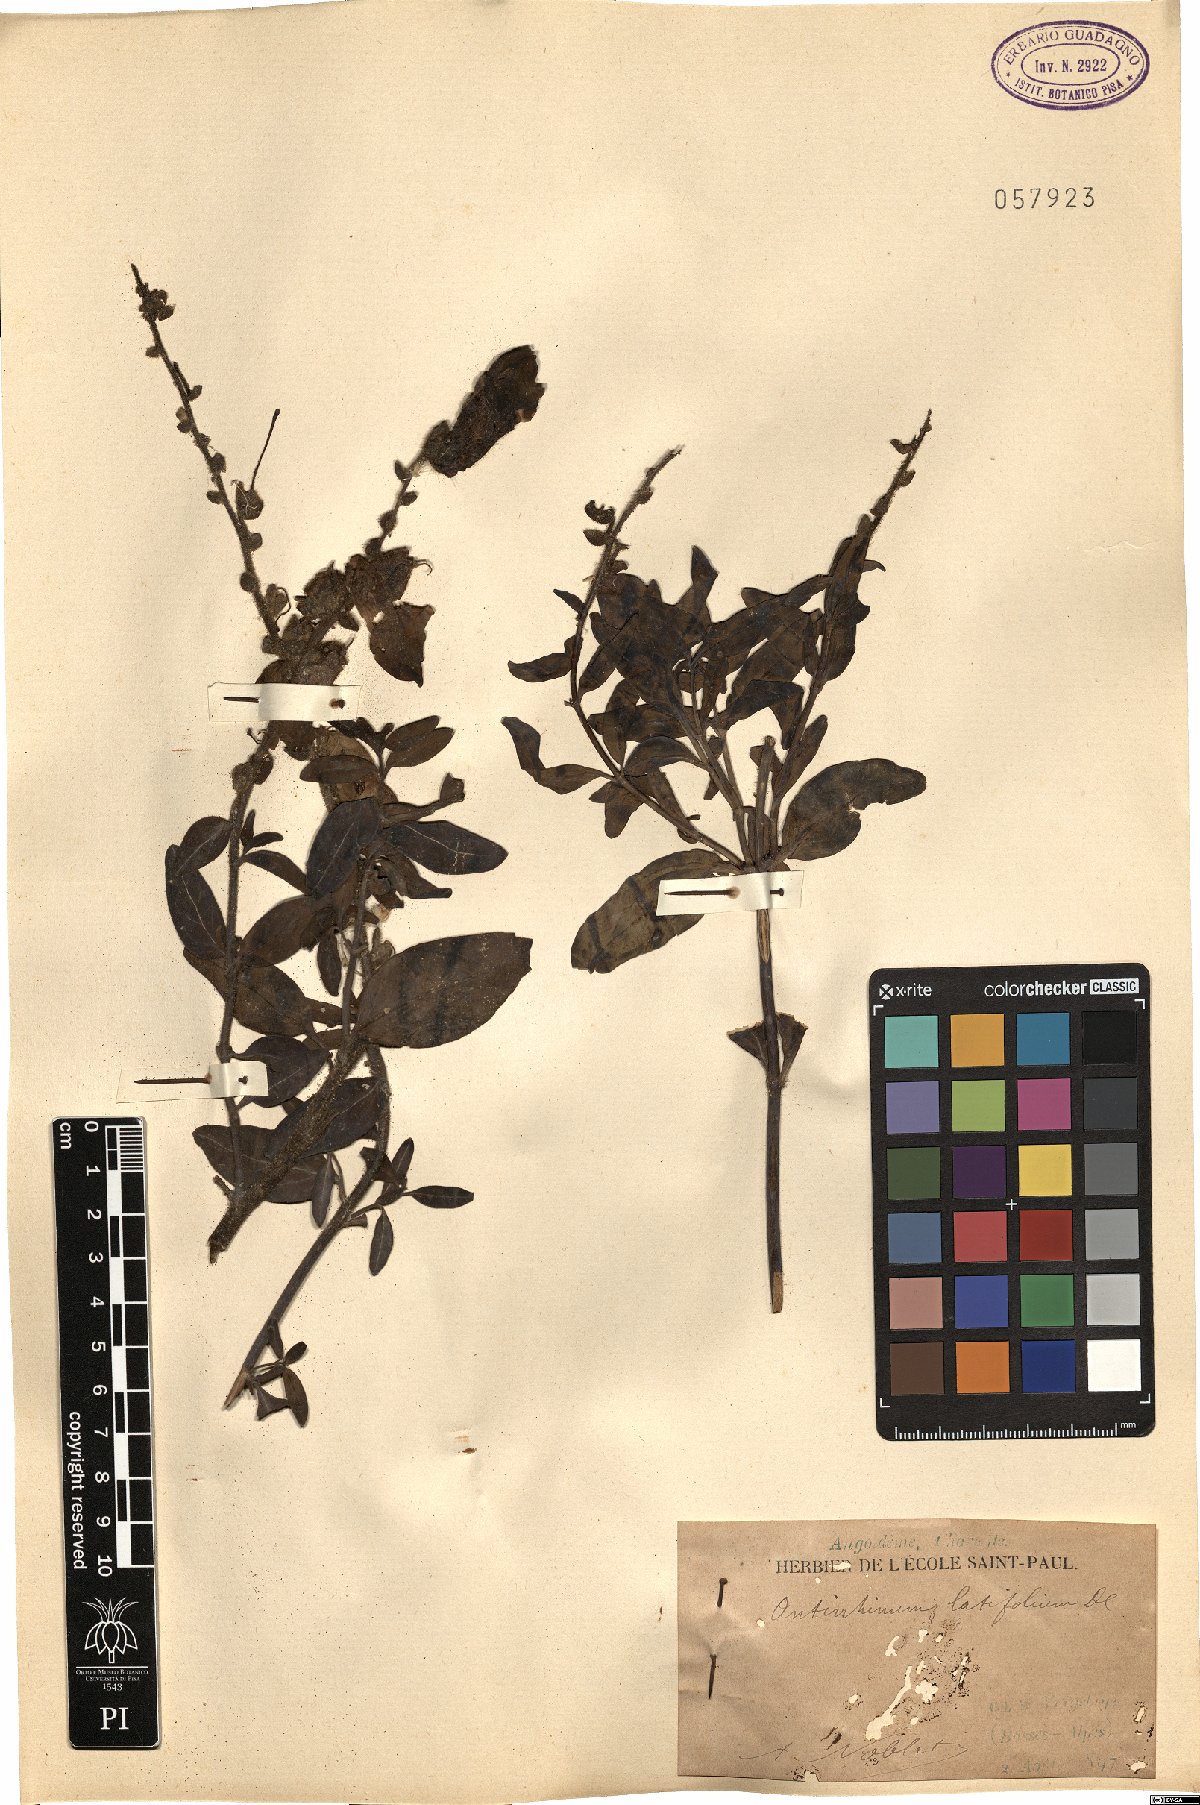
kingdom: Plantae
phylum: Tracheophyta
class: Magnoliopsida
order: Lamiales
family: Plantaginaceae
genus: Antirrhinum
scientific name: Antirrhinum latifolium
